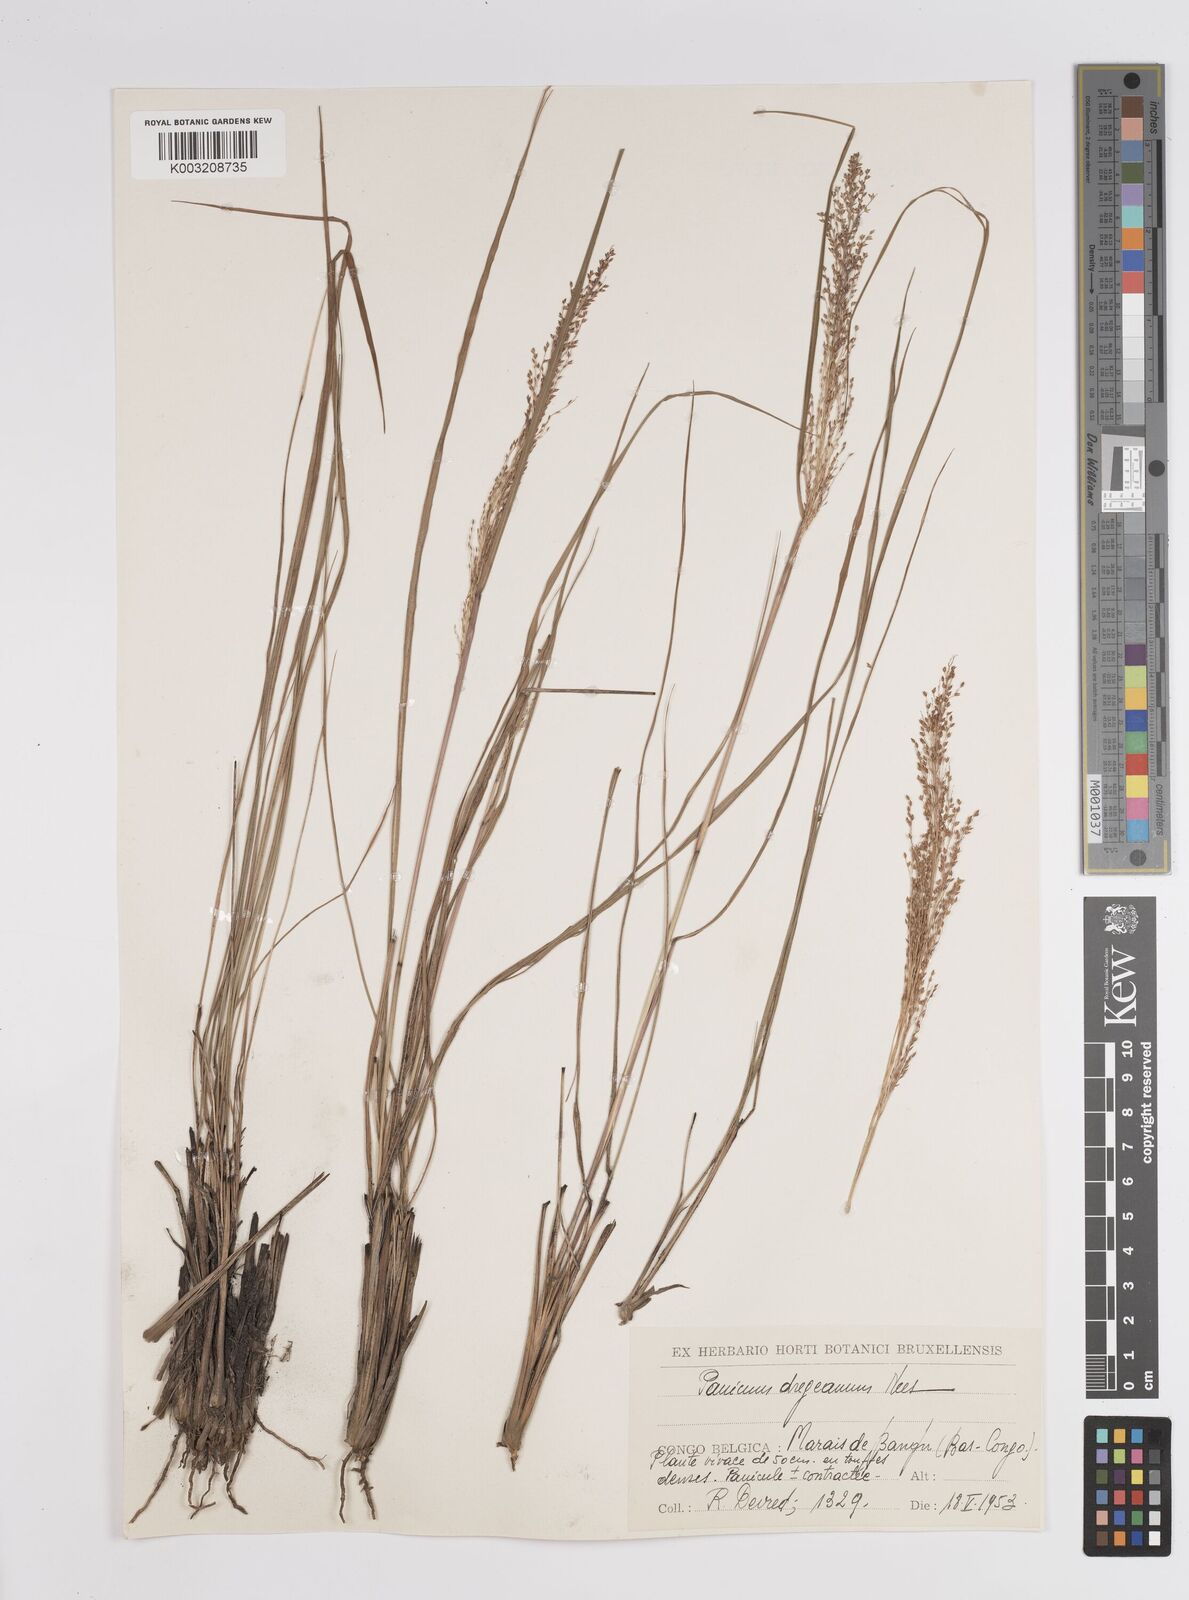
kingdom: Plantae
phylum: Tracheophyta
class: Liliopsida
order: Poales
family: Poaceae
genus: Panicum
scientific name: Panicum dregeanum
